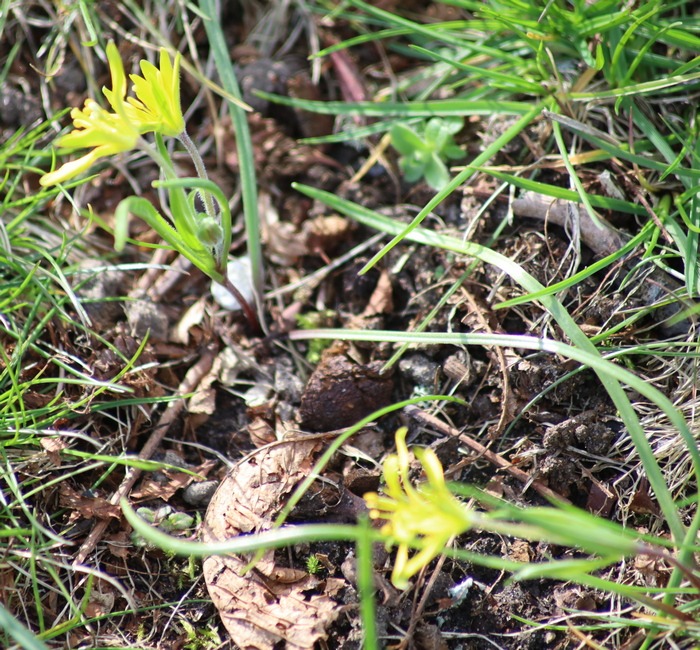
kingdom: Plantae
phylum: Tracheophyta
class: Liliopsida
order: Liliales
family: Liliaceae
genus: Gagea
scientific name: Gagea villosa
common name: Ager-guldstjerne
